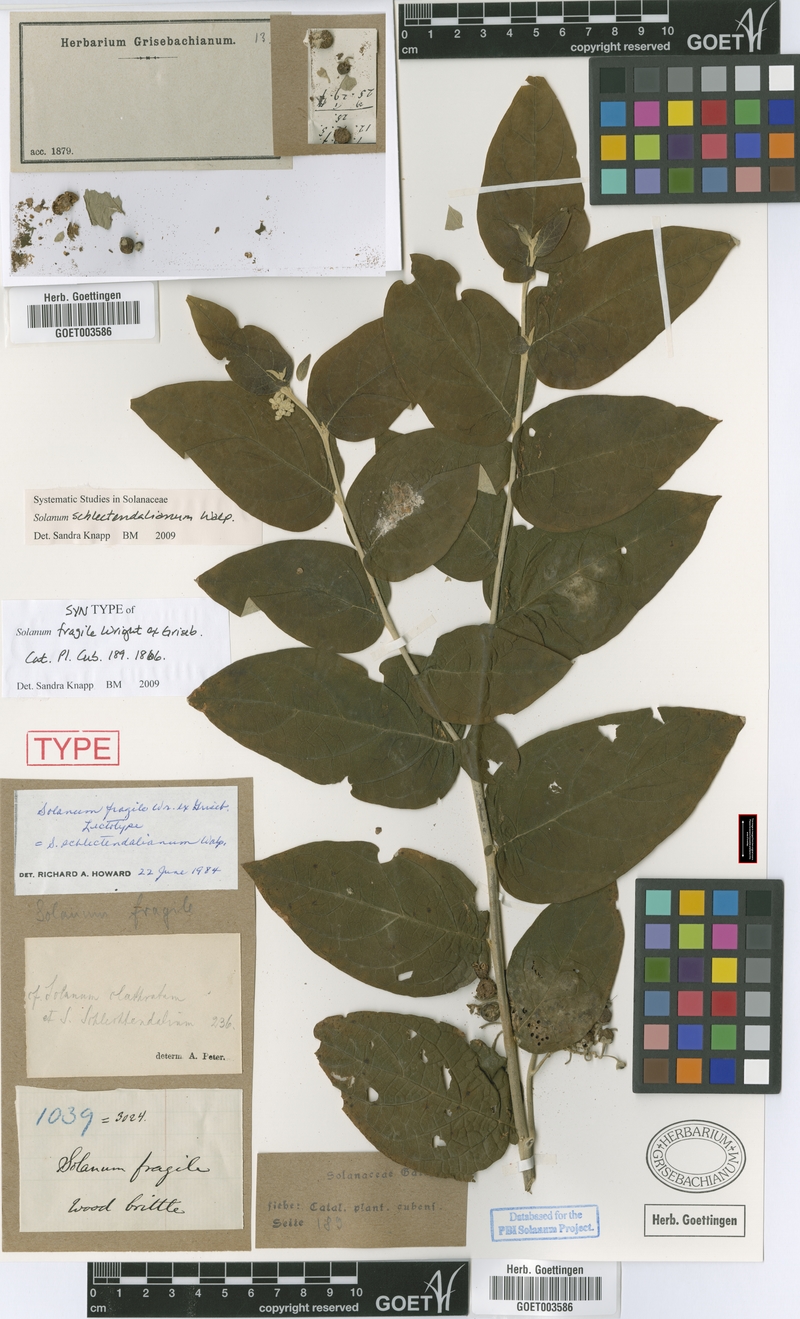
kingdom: Plantae
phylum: Tracheophyta
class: Magnoliopsida
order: Solanales
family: Solanaceae
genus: Solanum
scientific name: Solanum schlechtendalianum
